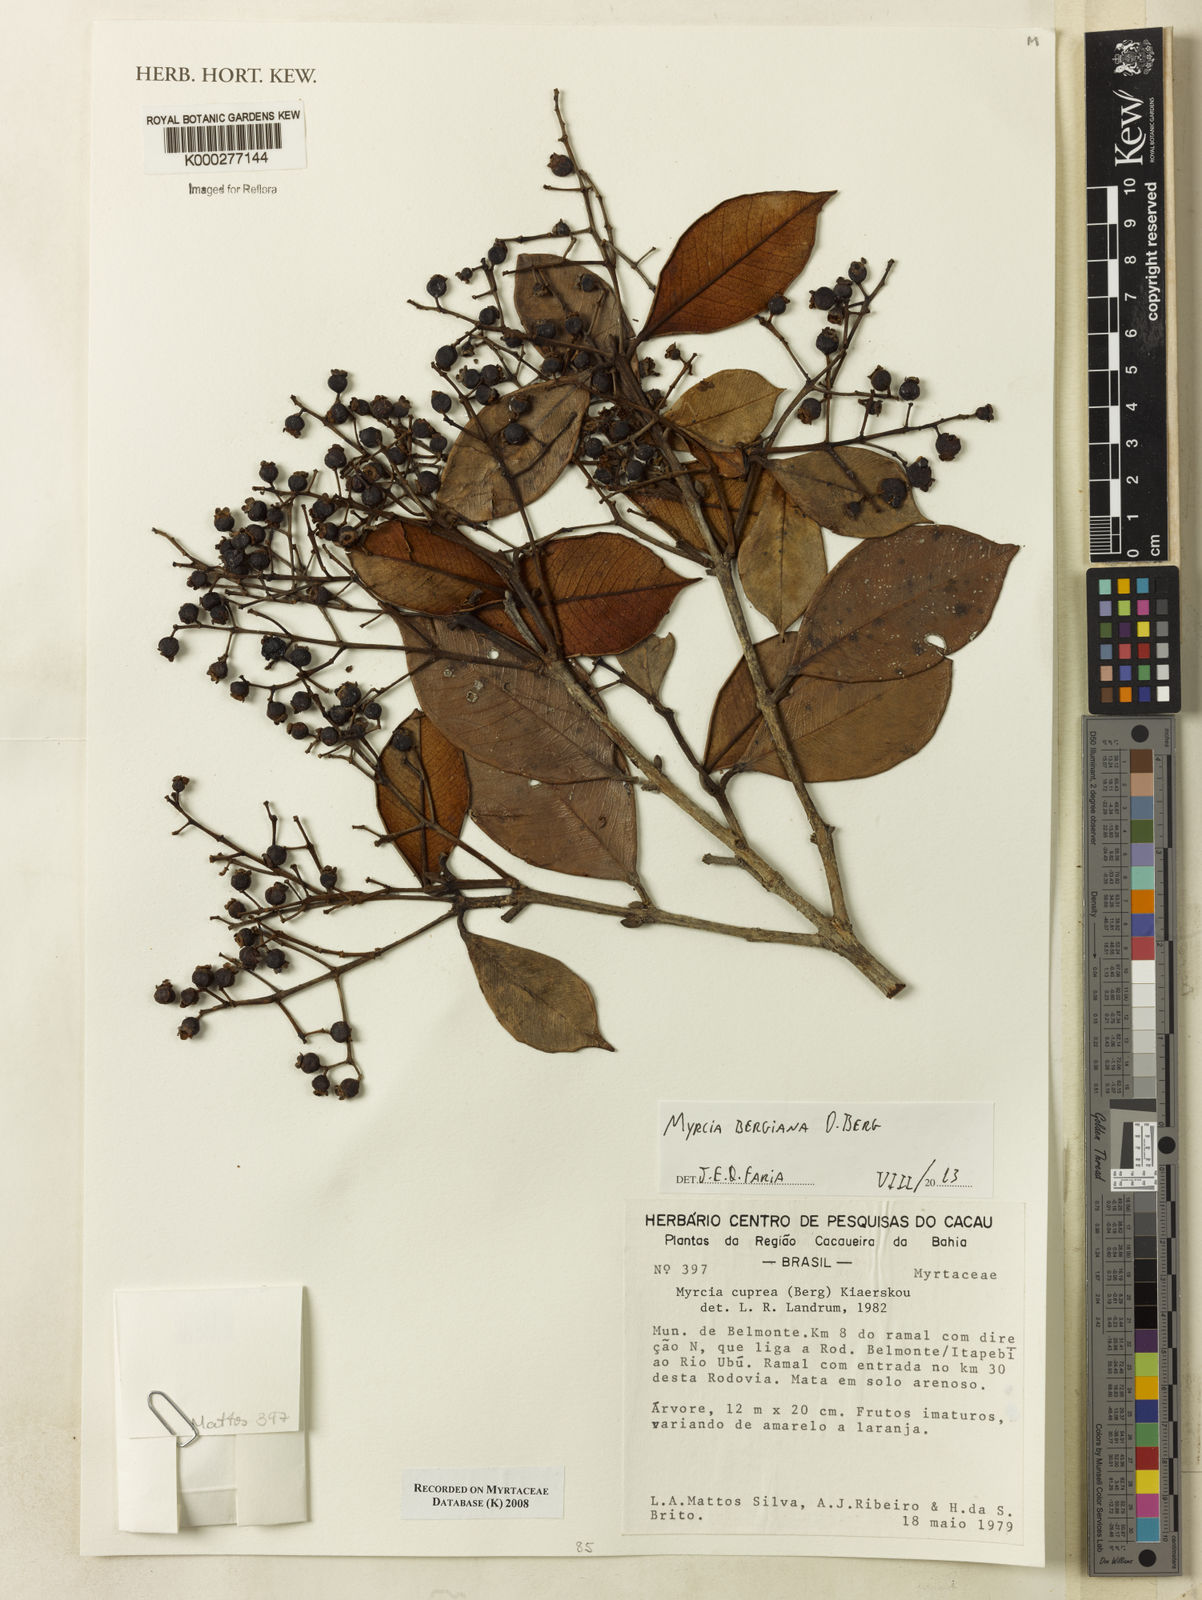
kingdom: Plantae
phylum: Tracheophyta
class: Magnoliopsida
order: Myrtales
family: Myrtaceae
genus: Myrcia
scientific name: Myrcia bergiana
